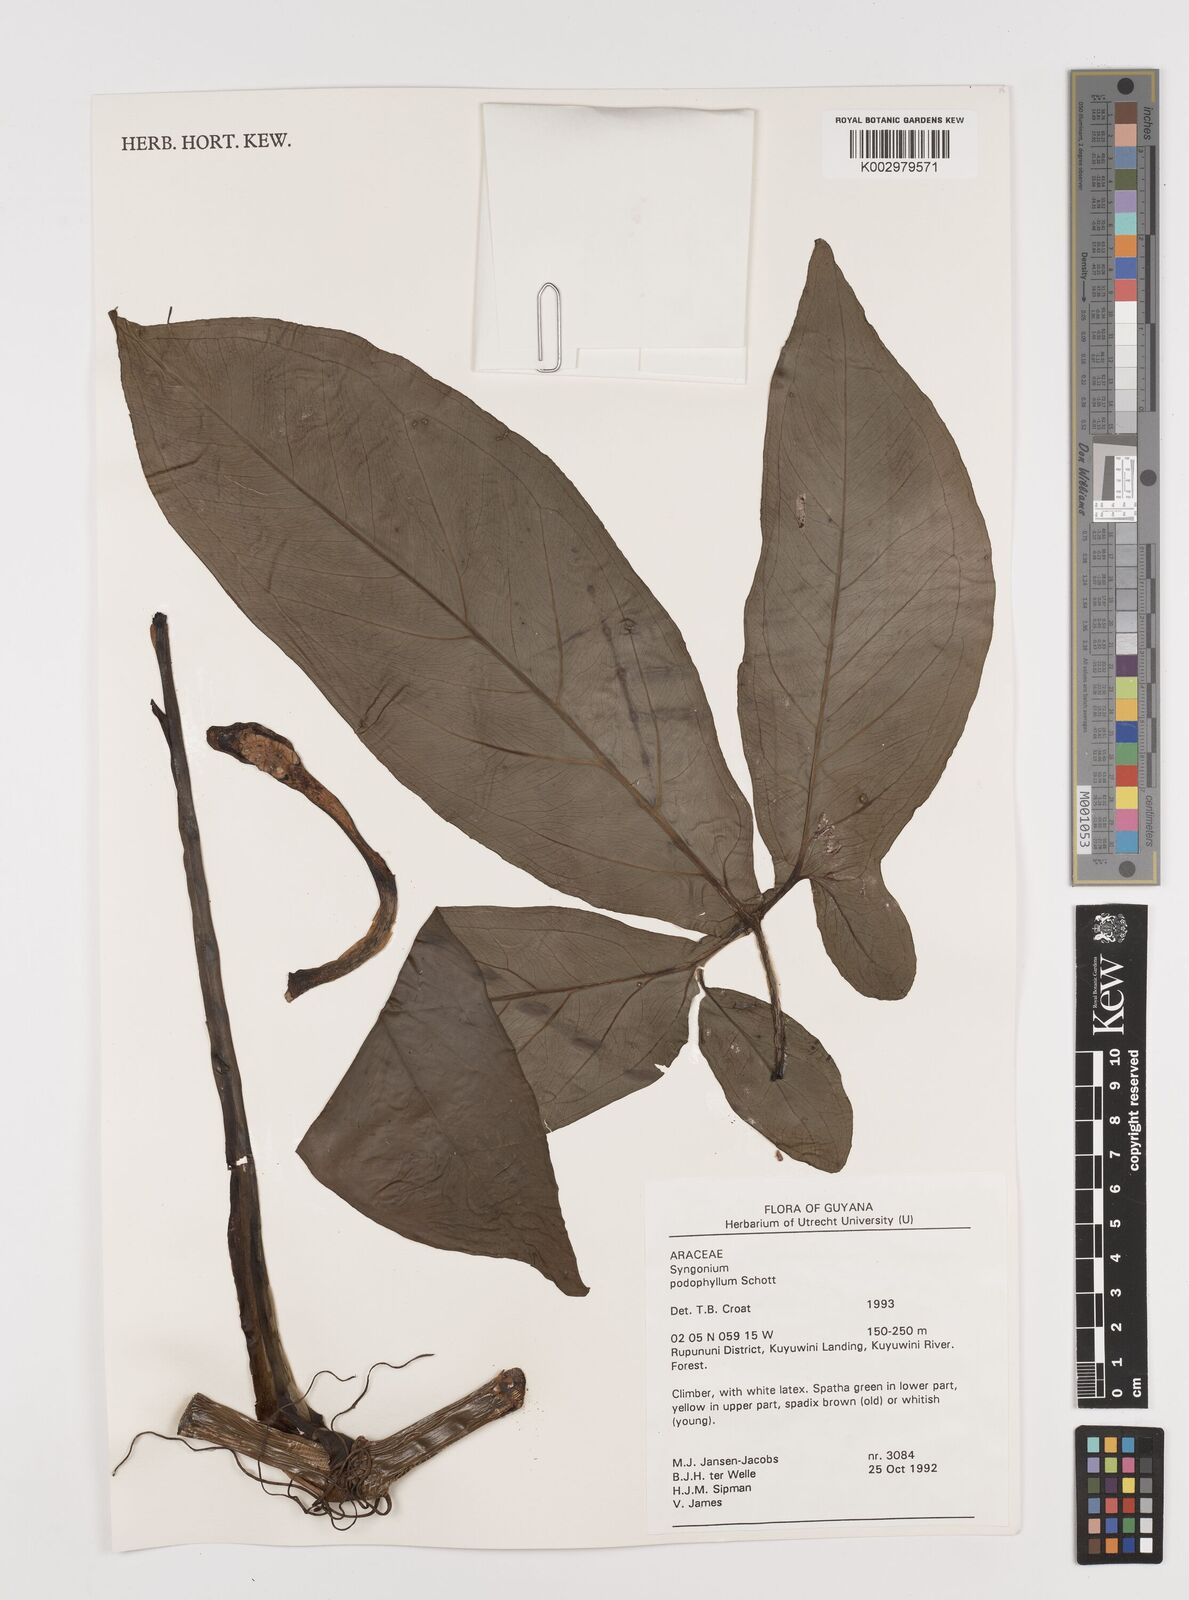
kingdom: Plantae
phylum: Tracheophyta
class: Liliopsida
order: Alismatales
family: Araceae
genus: Syngonium
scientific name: Syngonium podophyllum
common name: American evergreen
